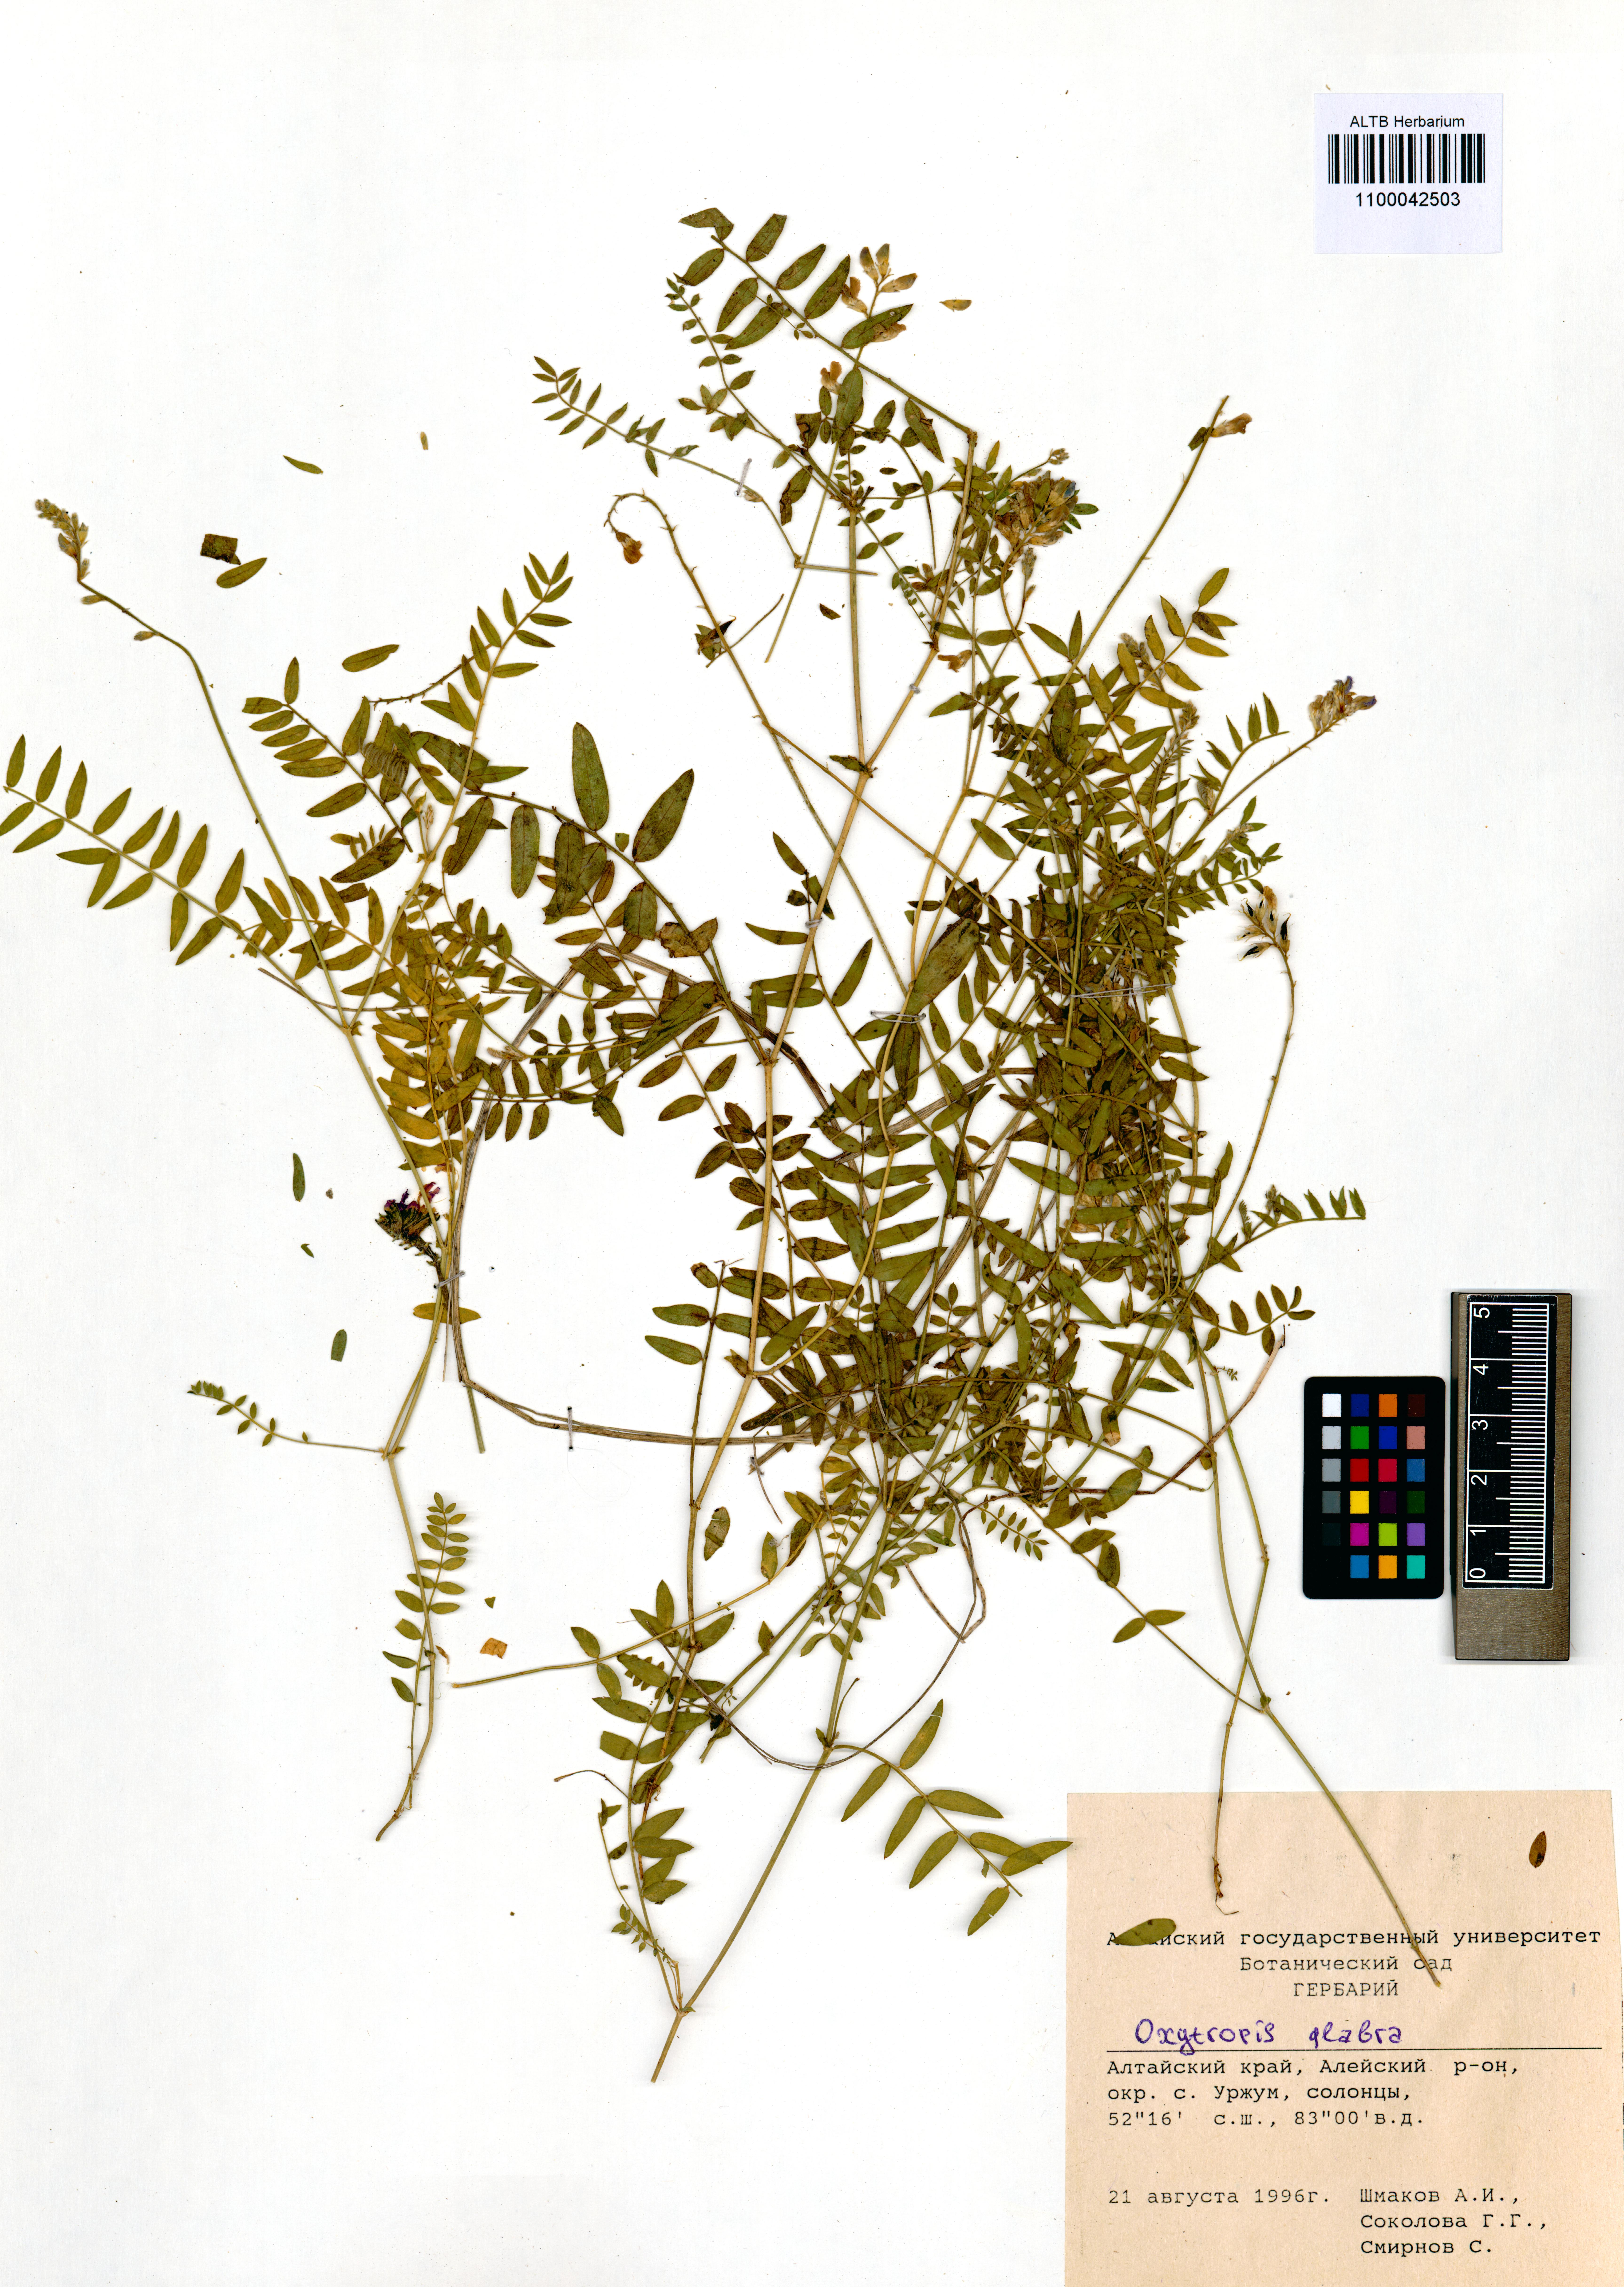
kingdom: Plantae
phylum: Tracheophyta
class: Magnoliopsida
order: Fabales
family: Fabaceae
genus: Oxytropis
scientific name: Oxytropis glabra
